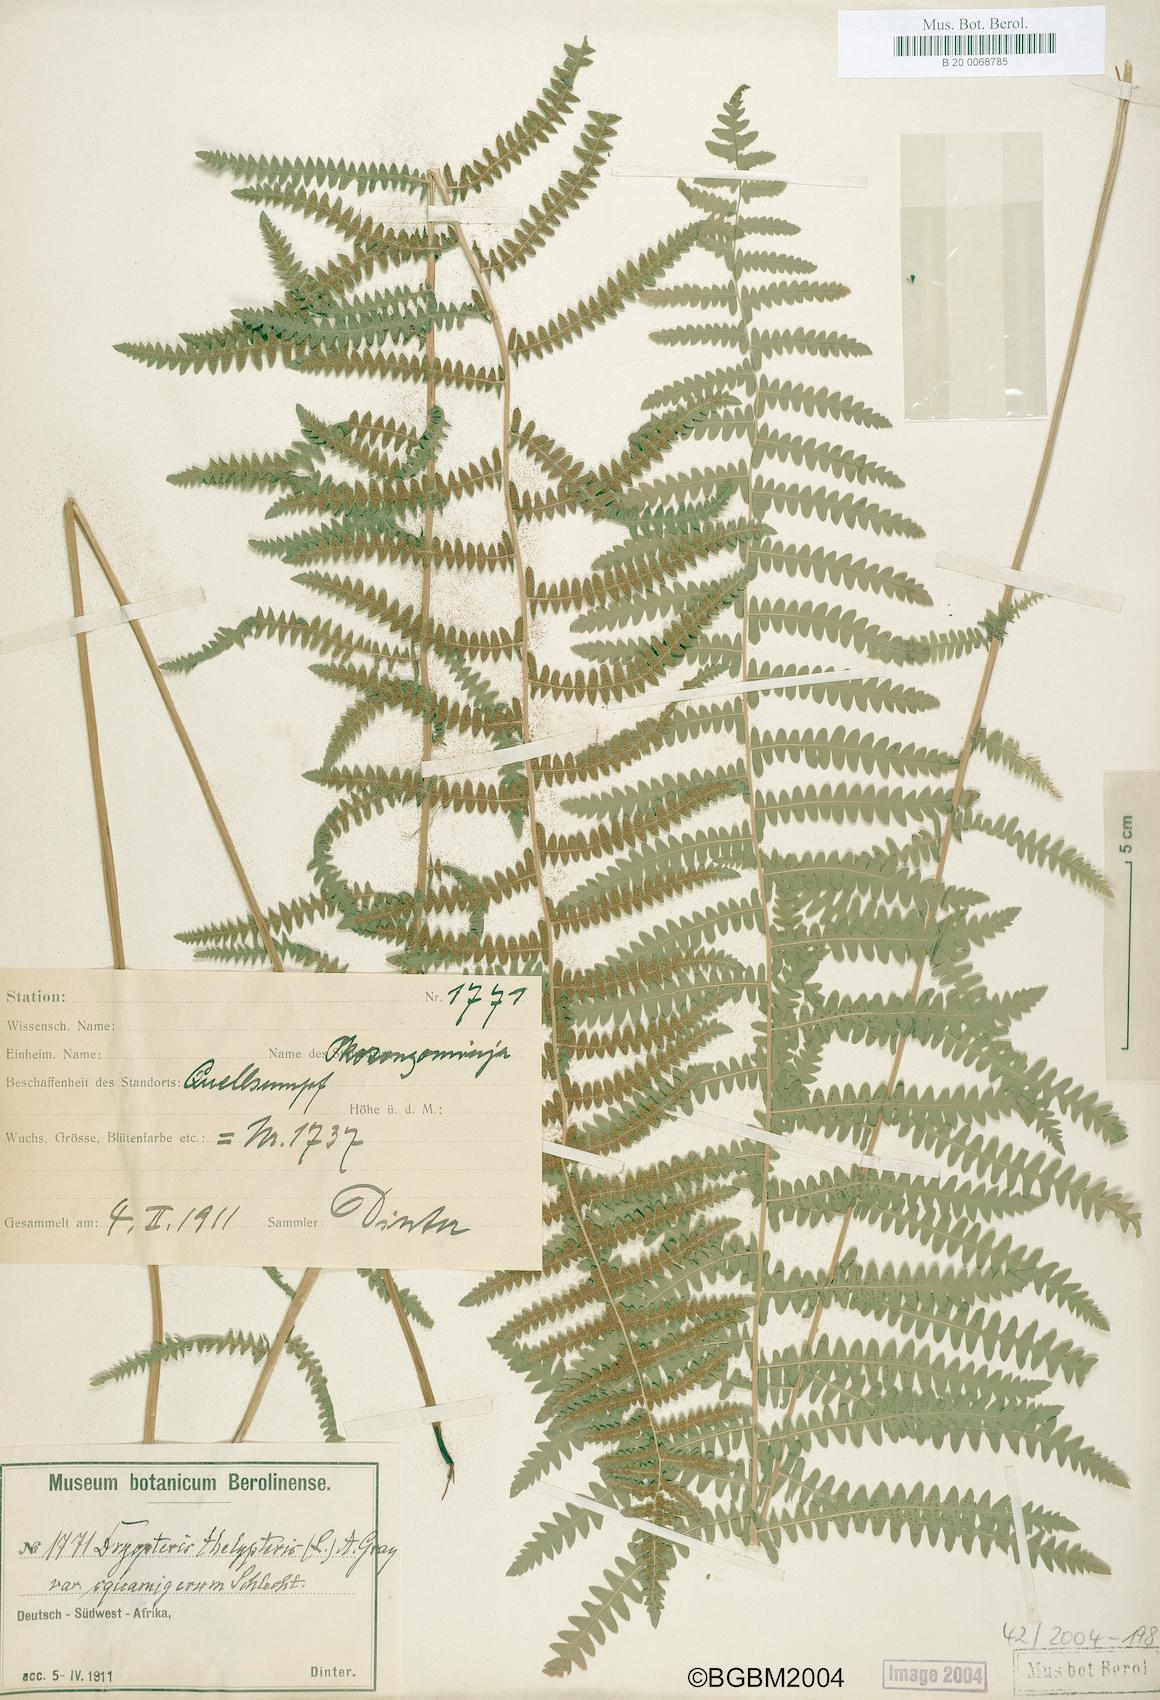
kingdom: Plantae
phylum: Tracheophyta
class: Polypodiopsida
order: Polypodiales
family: Thelypteridaceae
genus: Thelypteris
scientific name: Thelypteris palustris
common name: Marsh fern
